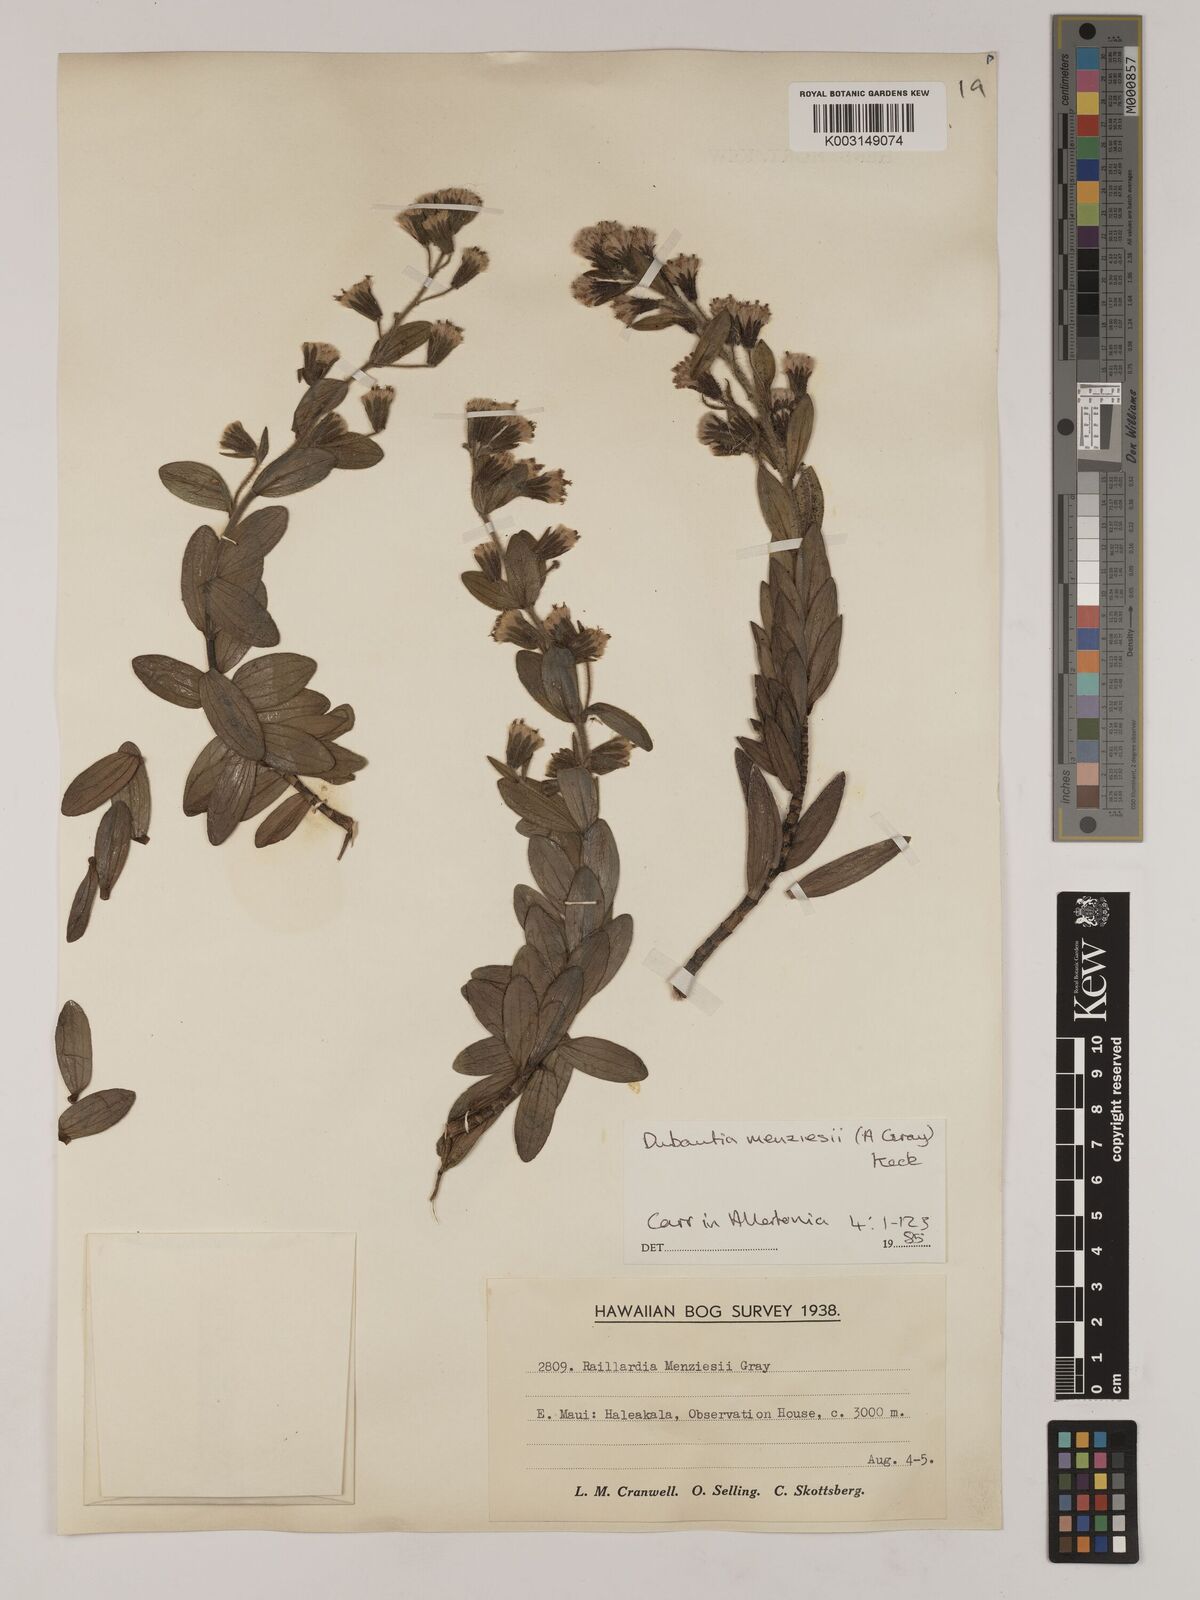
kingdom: Plantae
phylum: Tracheophyta
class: Magnoliopsida
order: Asterales
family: Asteraceae
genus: Dubautia
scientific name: Dubautia menziesii
